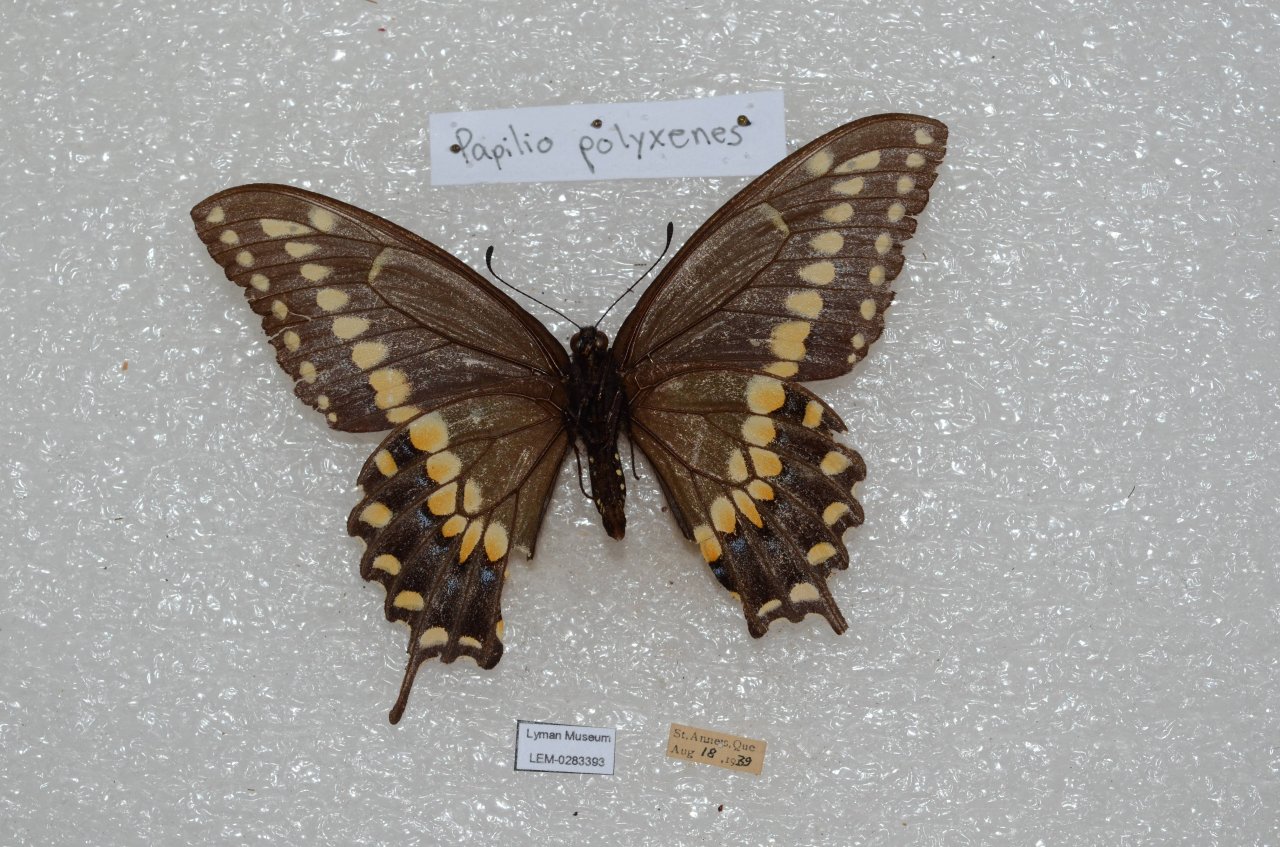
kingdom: Animalia
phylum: Arthropoda
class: Insecta
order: Lepidoptera
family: Papilionidae
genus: Papilio
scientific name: Papilio polyxenes
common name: Black Swallowtail
